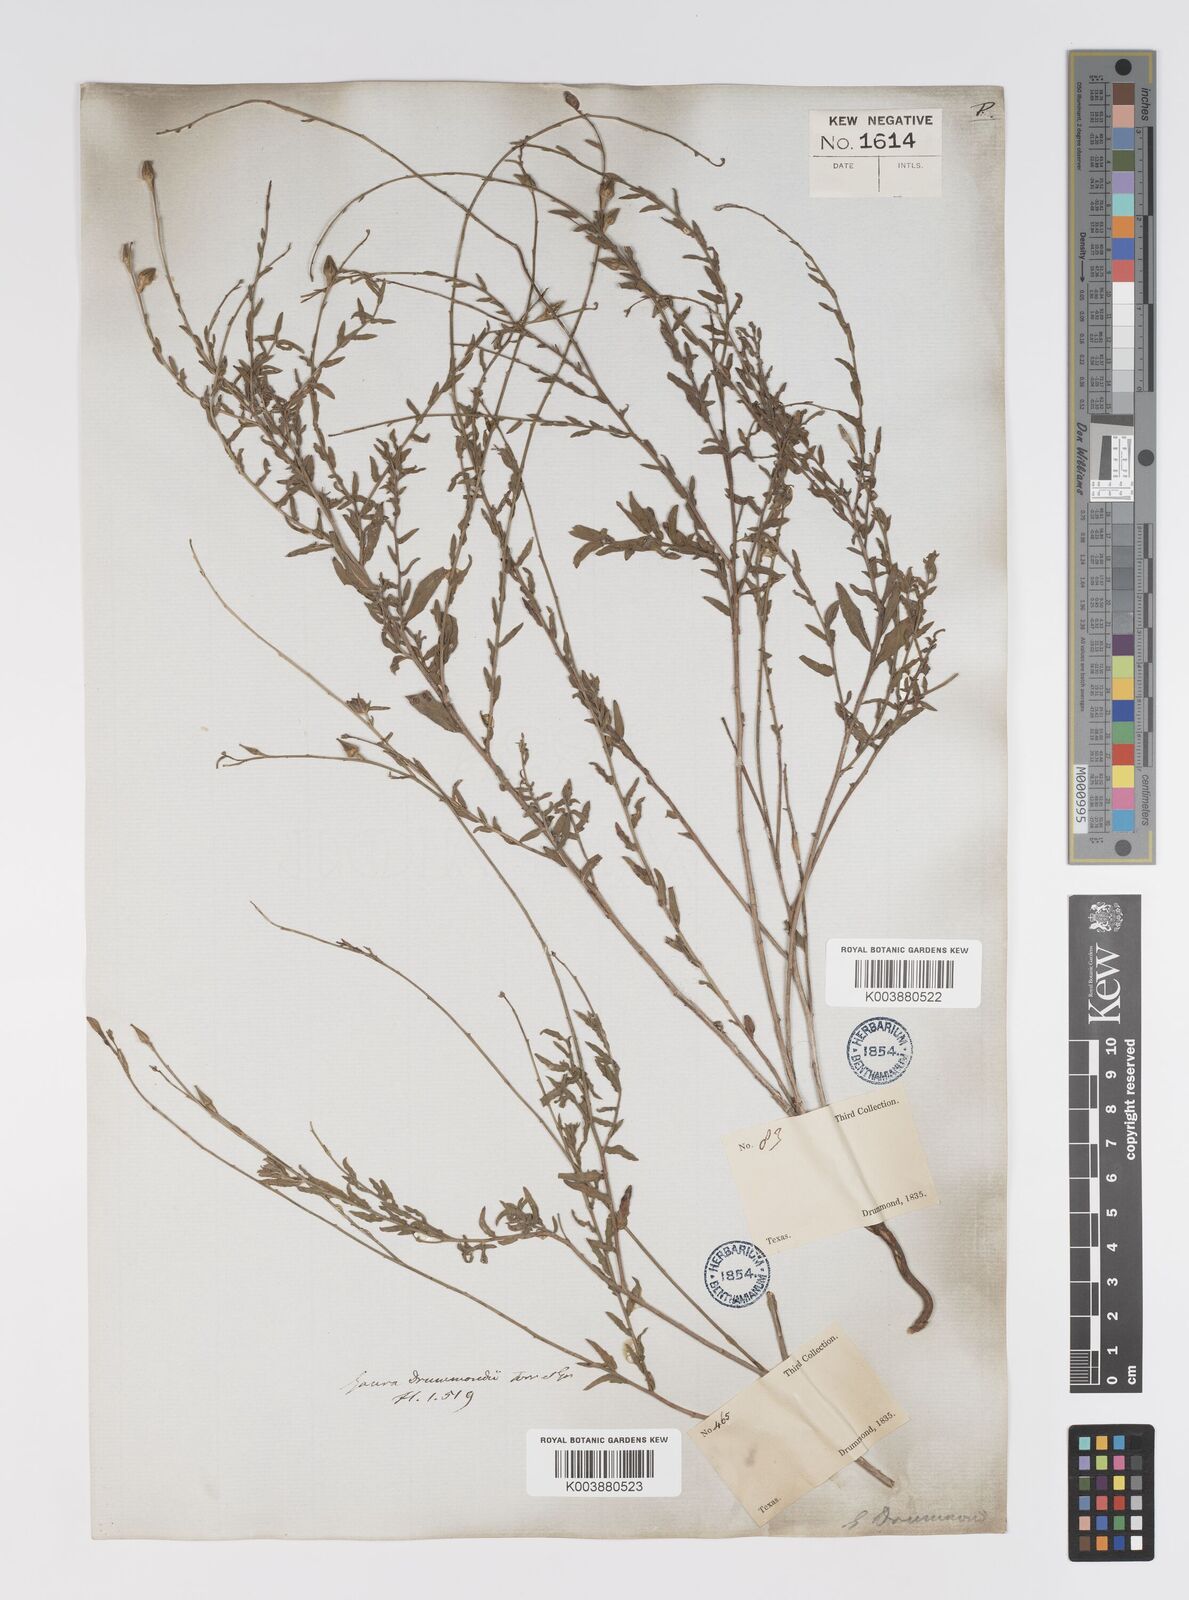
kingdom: Plantae
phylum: Tracheophyta
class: Magnoliopsida
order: Myrtales
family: Onagraceae
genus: Oenothera
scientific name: Oenothera hispida
